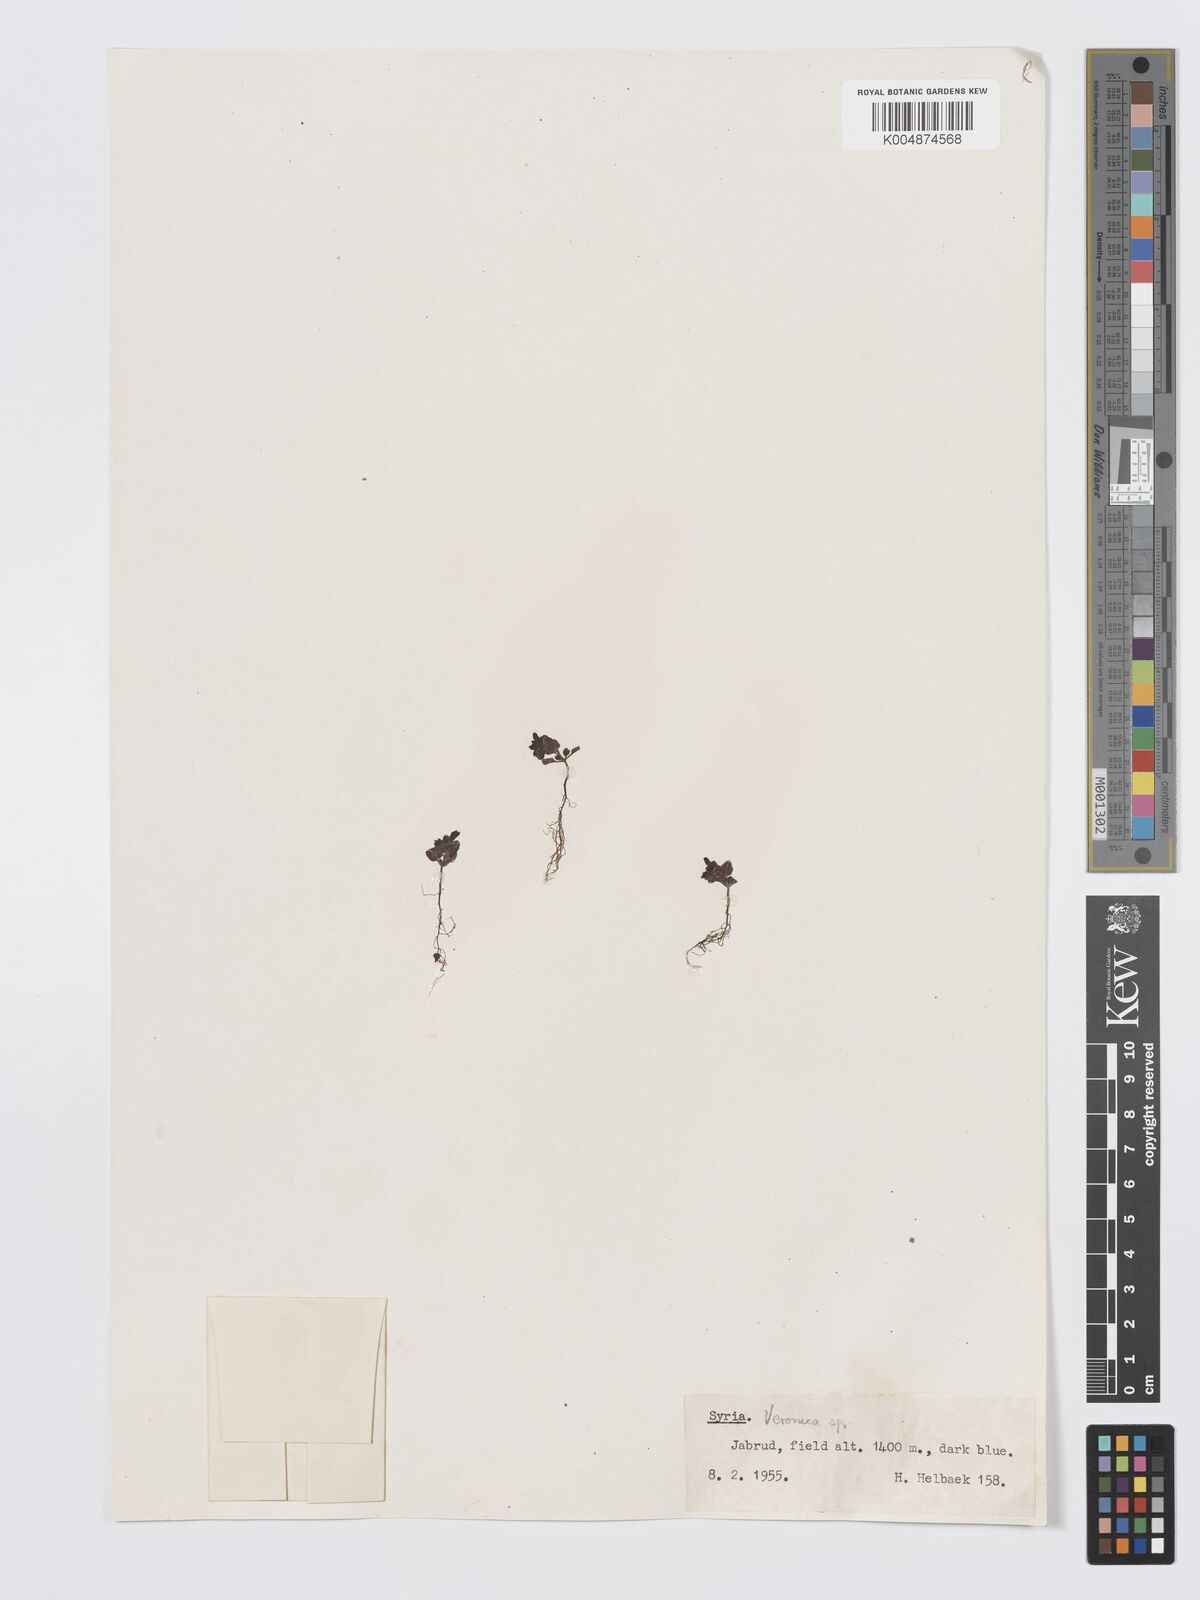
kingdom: Plantae
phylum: Tracheophyta
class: Magnoliopsida
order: Lamiales
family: Plantaginaceae
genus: Veronica
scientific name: Veronica
